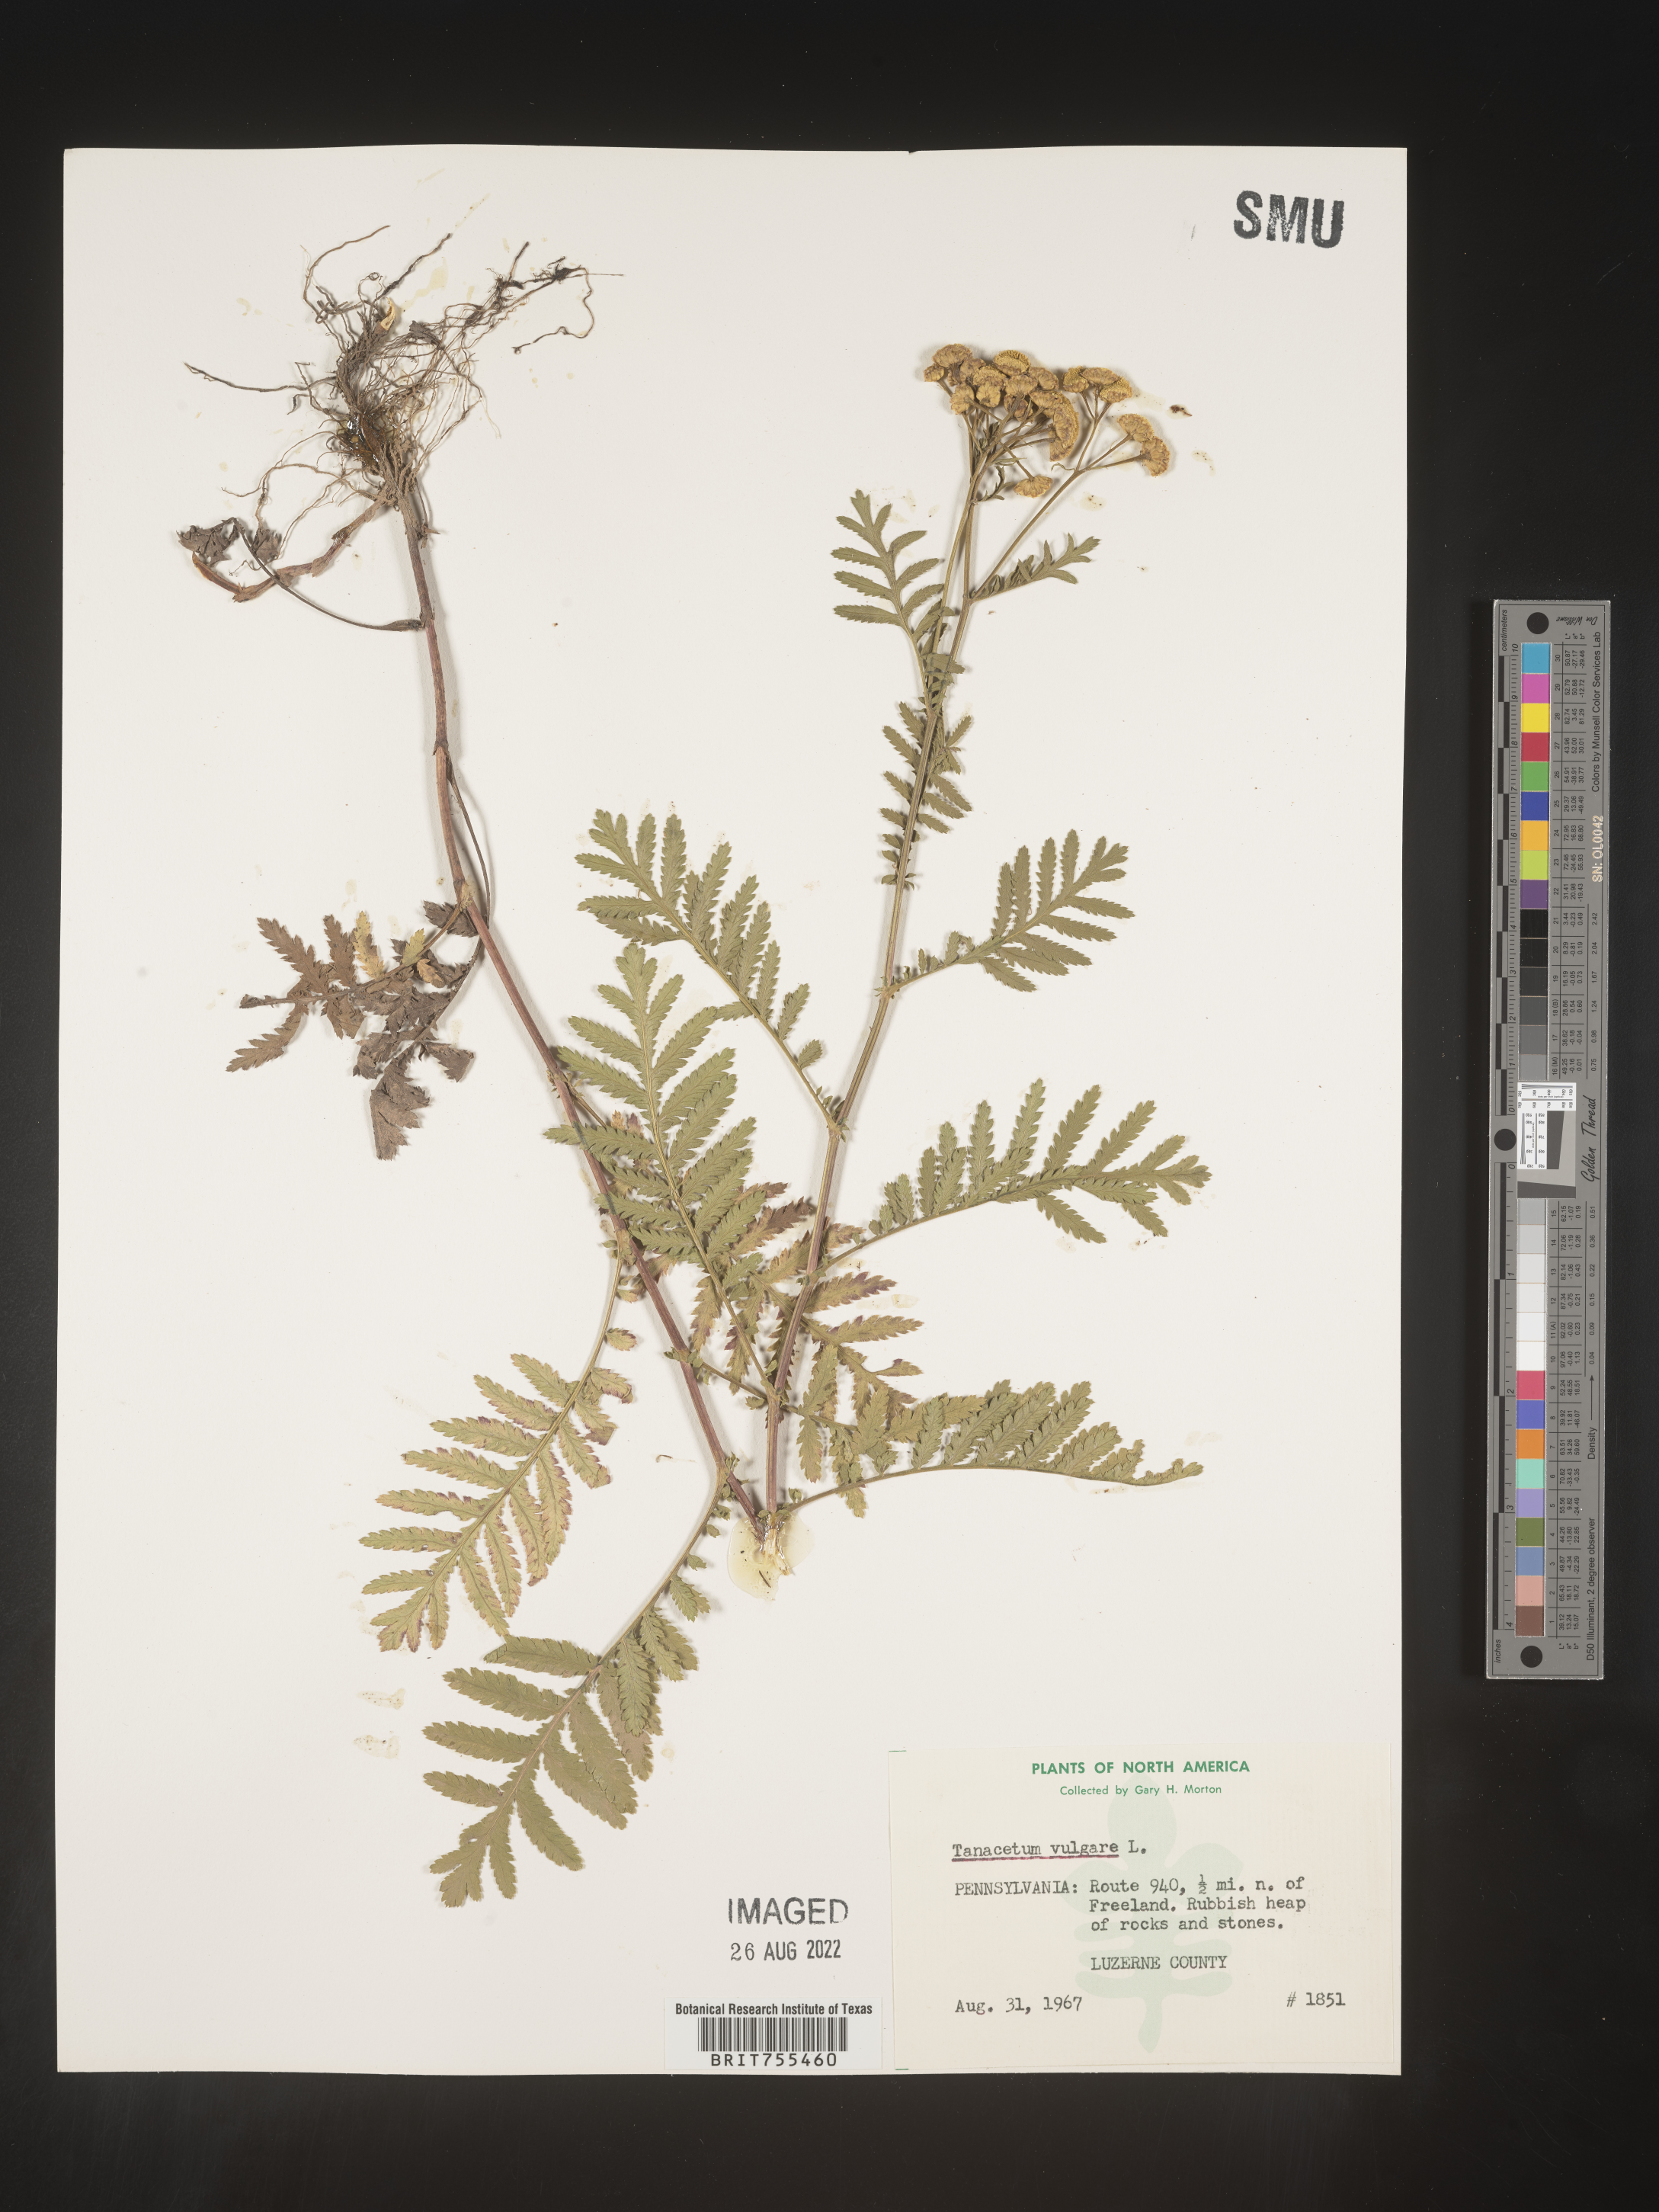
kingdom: Plantae
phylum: Tracheophyta
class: Magnoliopsida
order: Asterales
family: Asteraceae
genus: Tanacetum
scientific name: Tanacetum vulgare
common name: Common tansy
